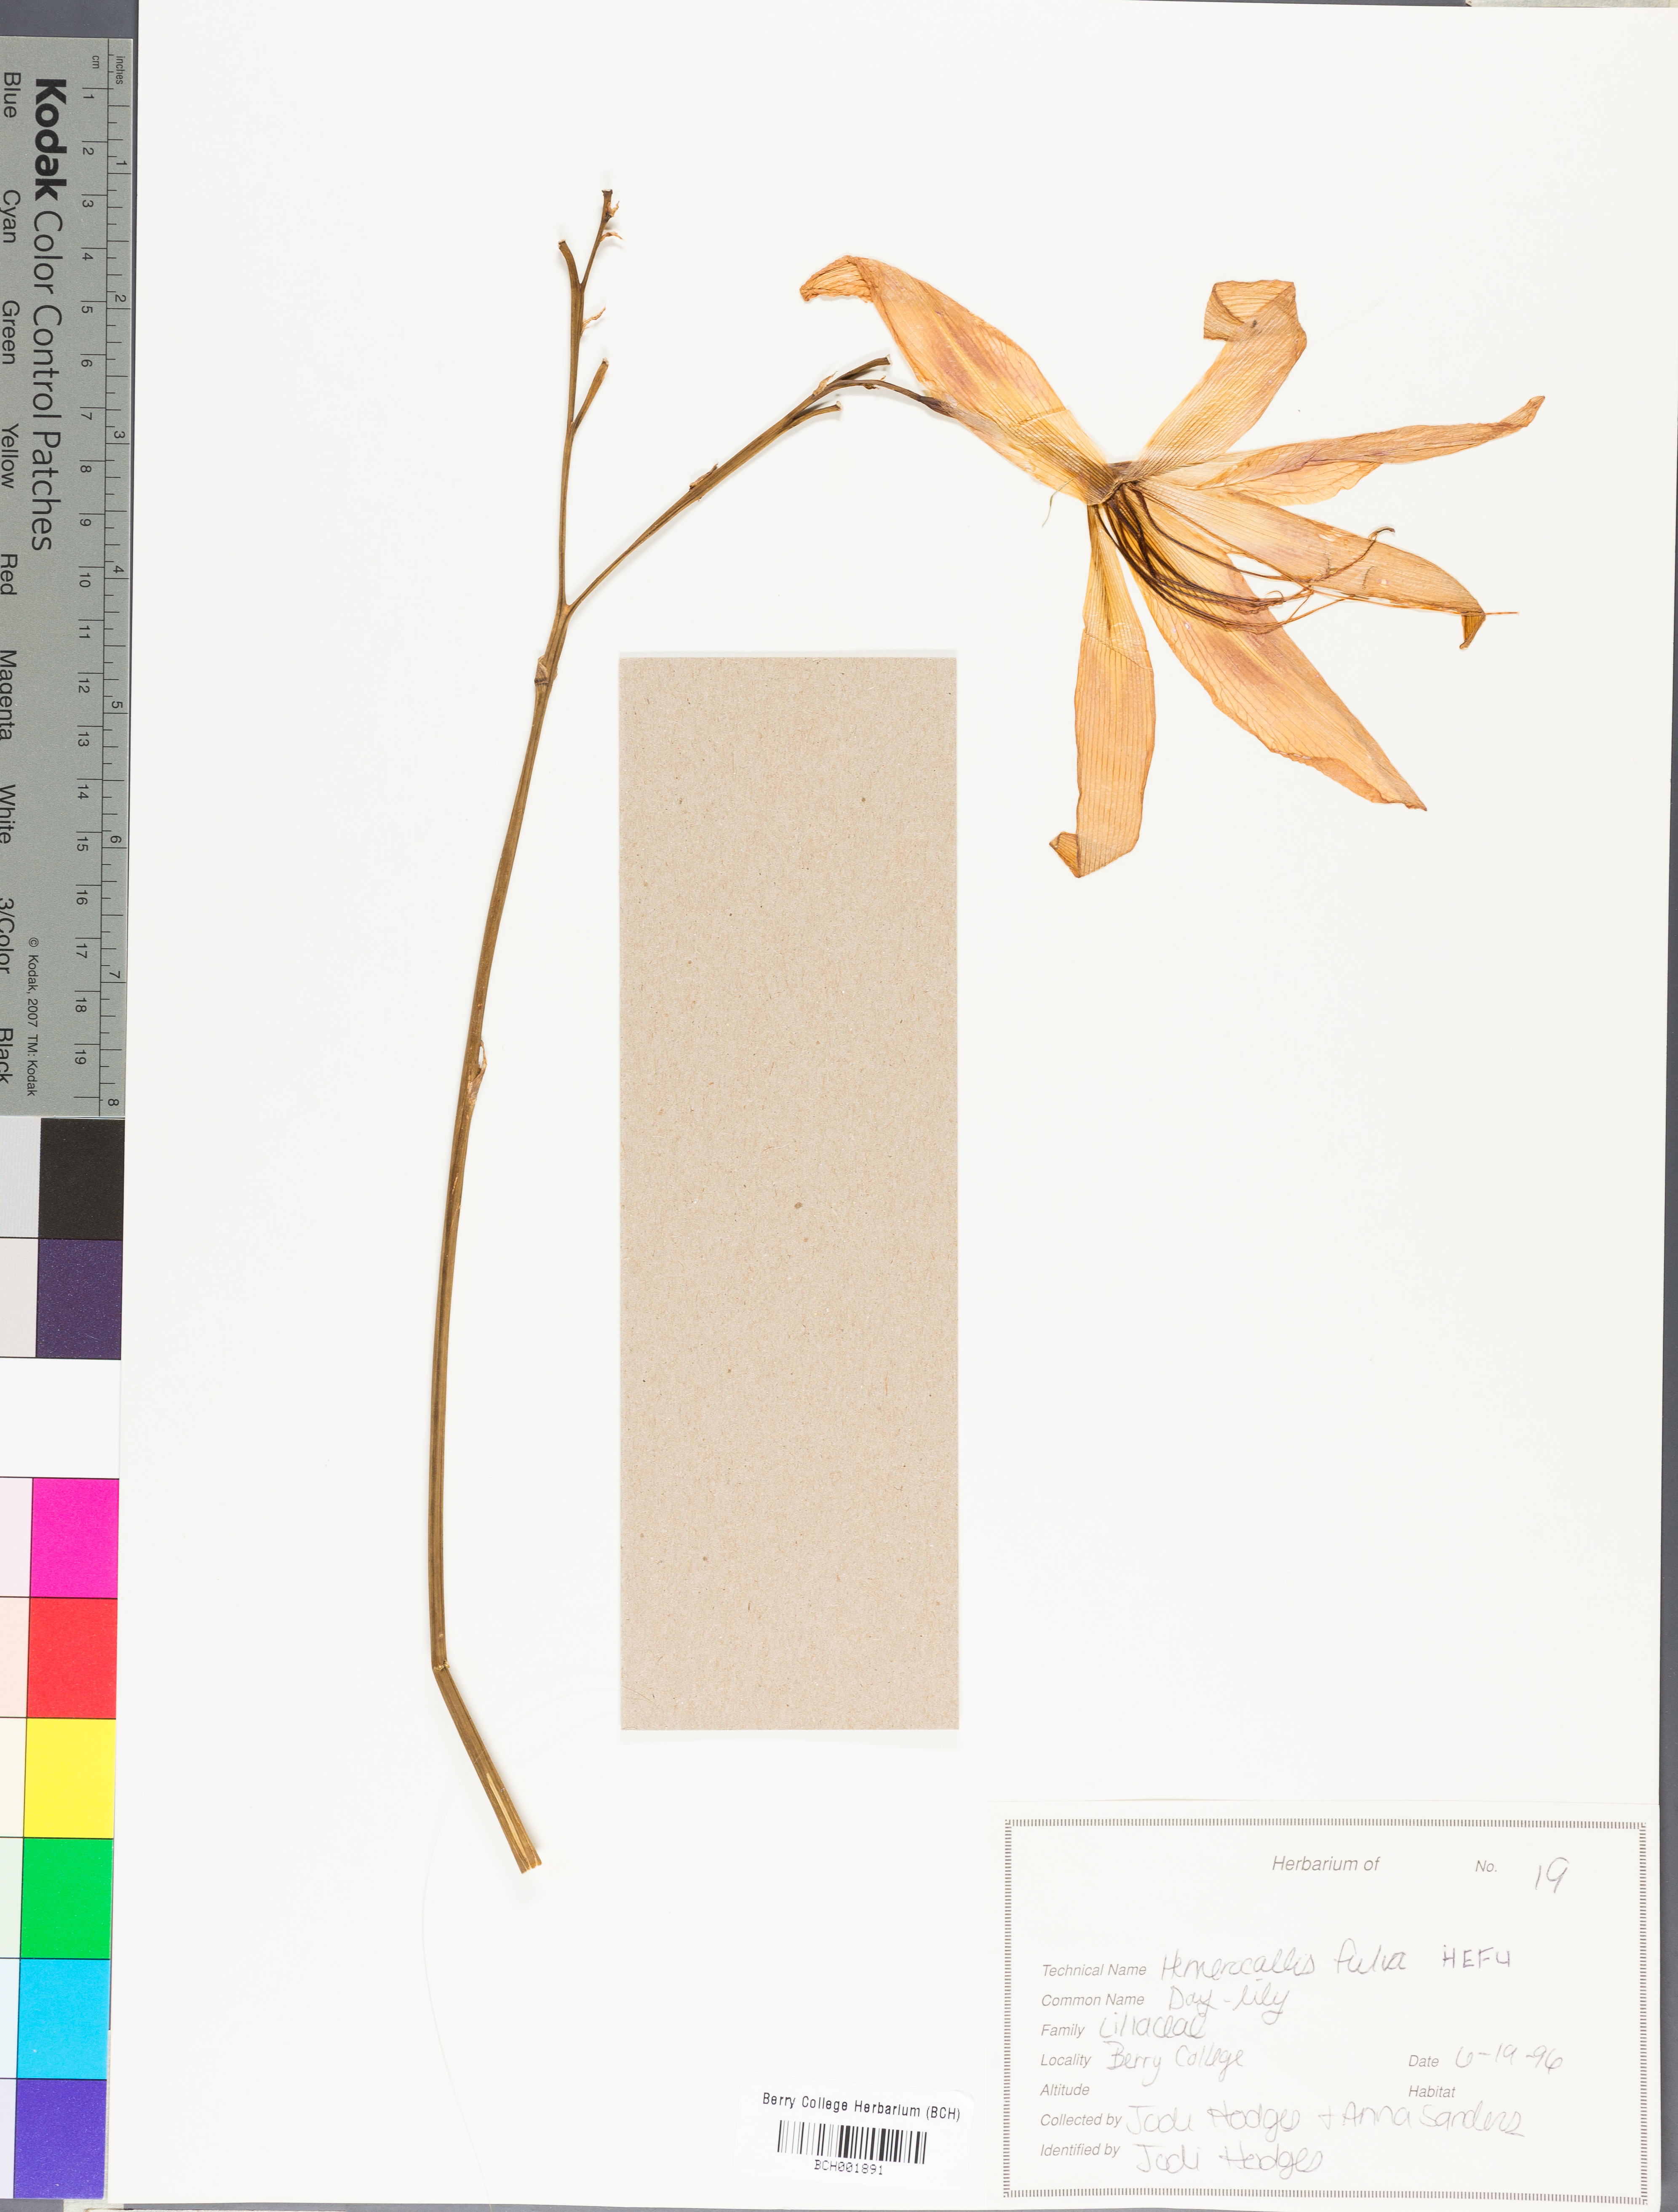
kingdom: Plantae
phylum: Tracheophyta
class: Liliopsida
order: Asparagales
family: Asphodelaceae
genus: Hemerocallis
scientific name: Hemerocallis fulva
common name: Orange day-lily
